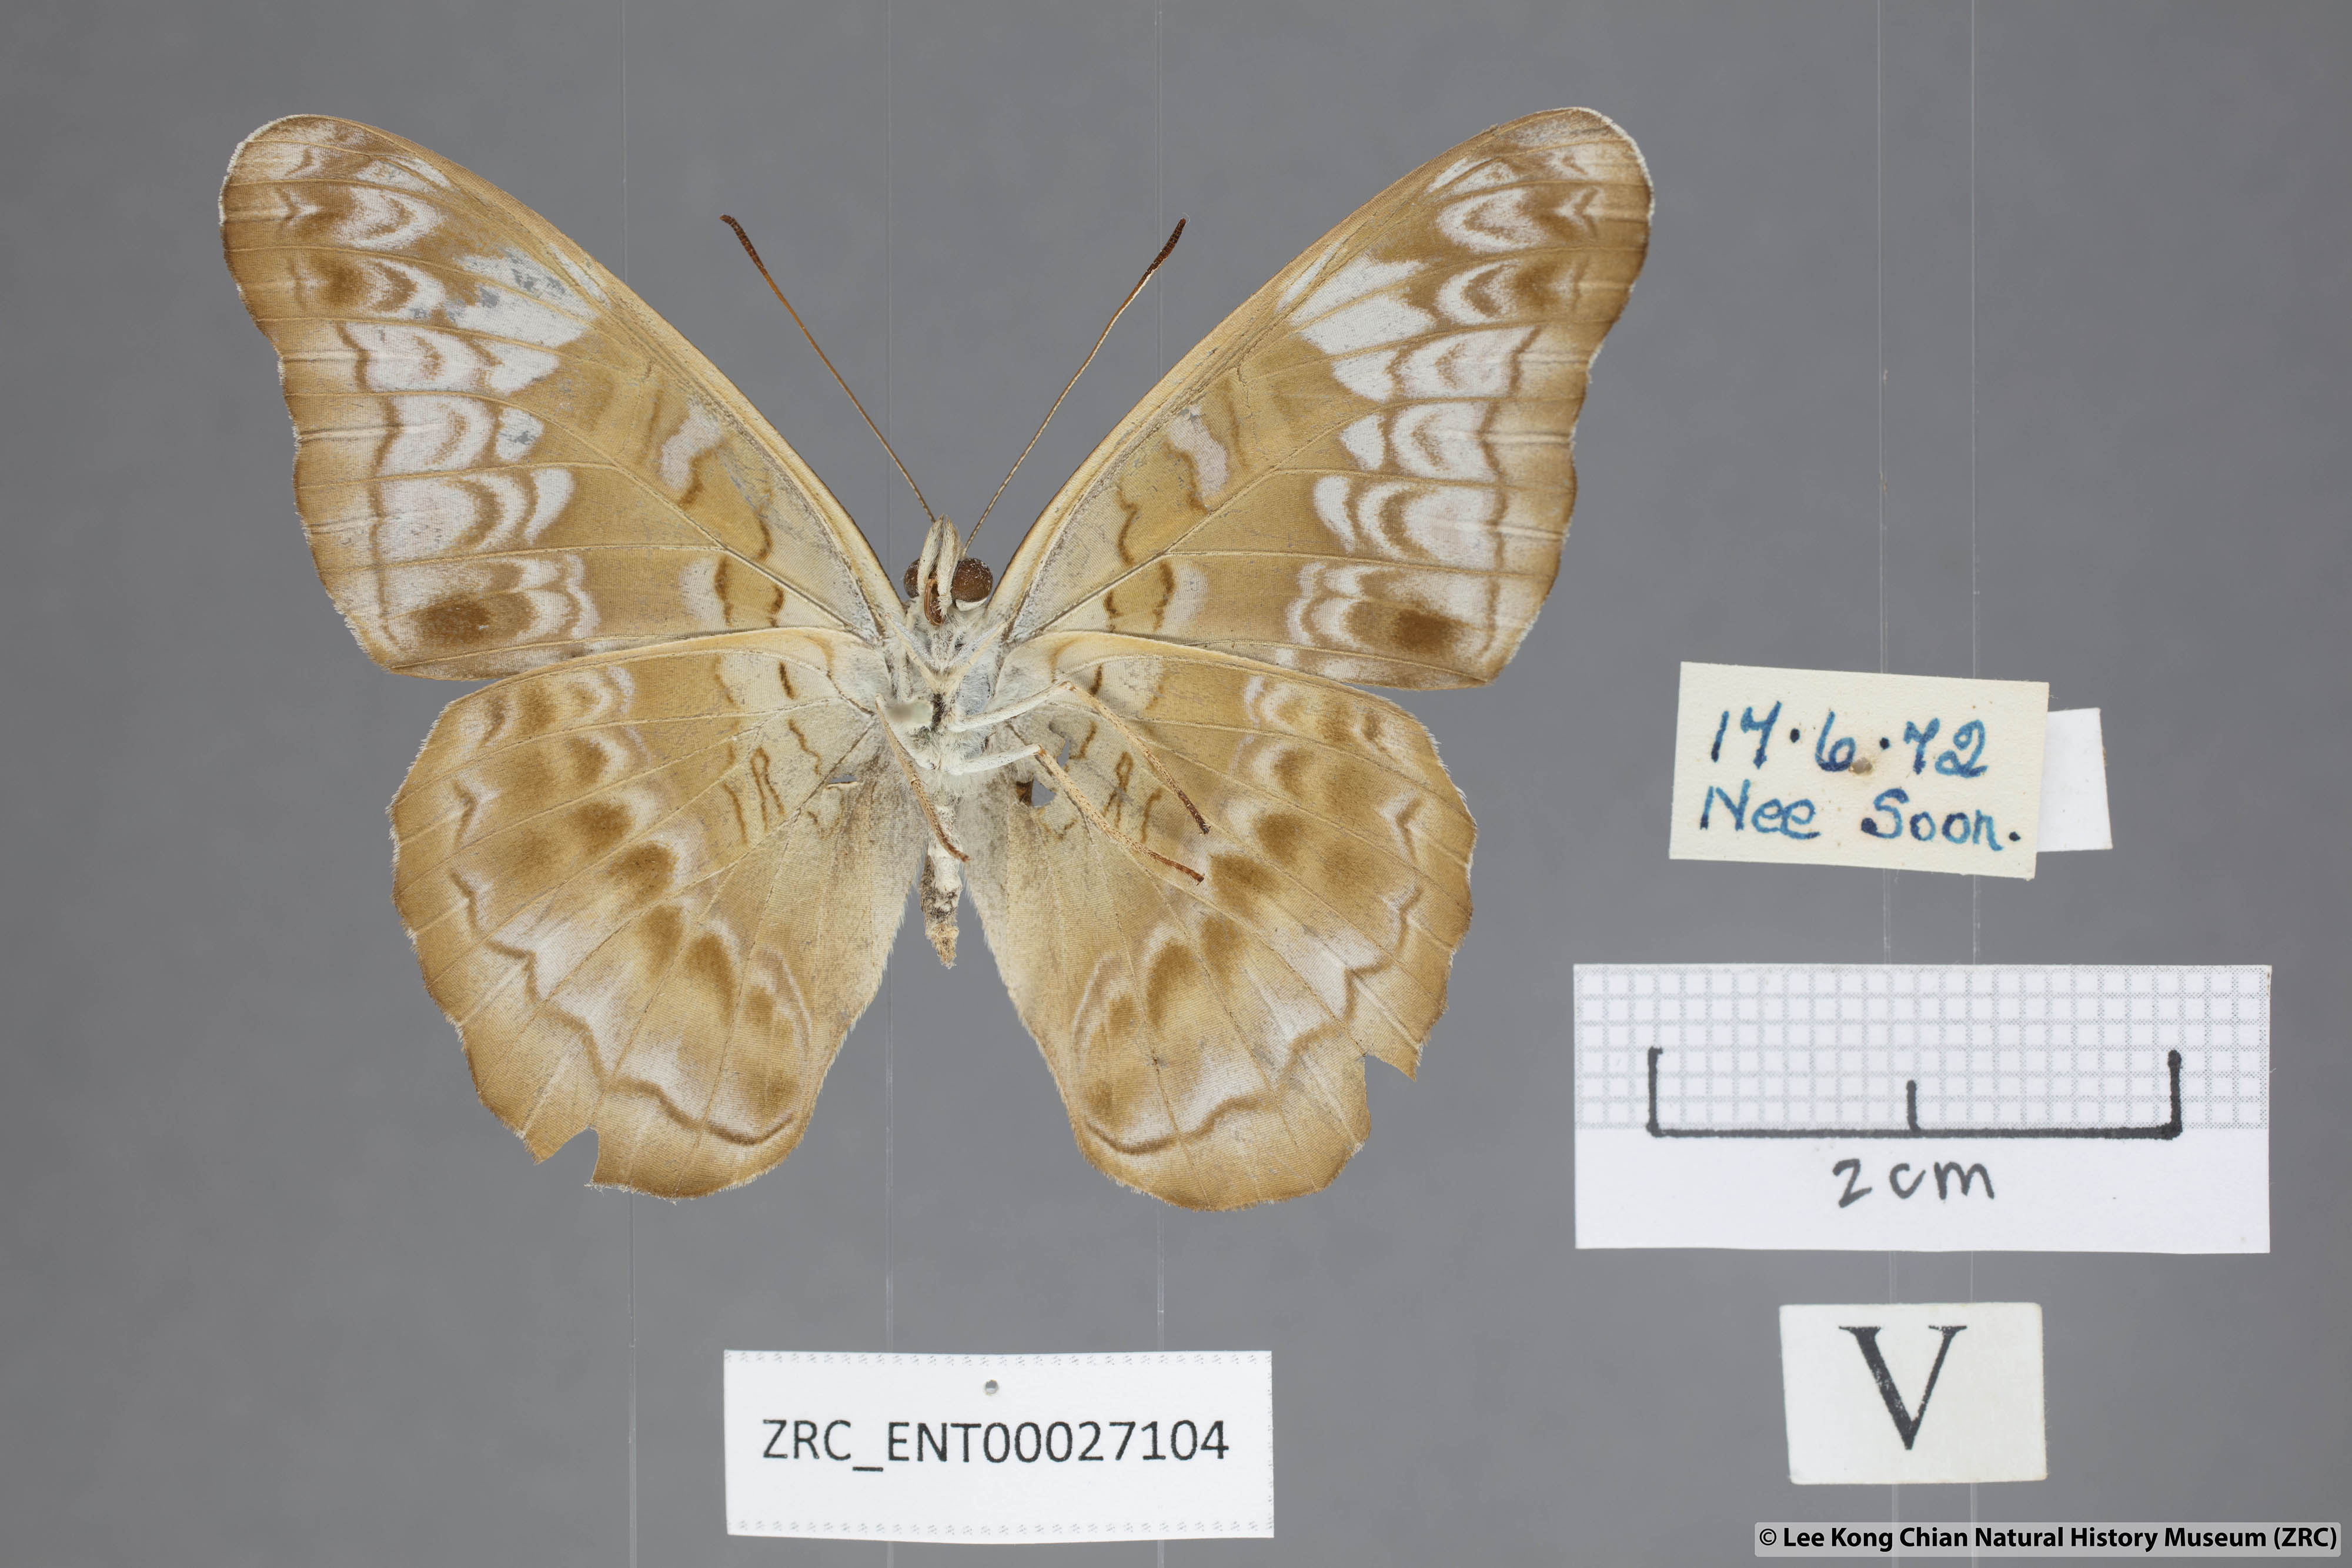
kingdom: Animalia
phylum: Arthropoda
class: Insecta
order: Lepidoptera
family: Nymphalidae
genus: Lebadea
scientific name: Lebadea martha
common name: Knight
